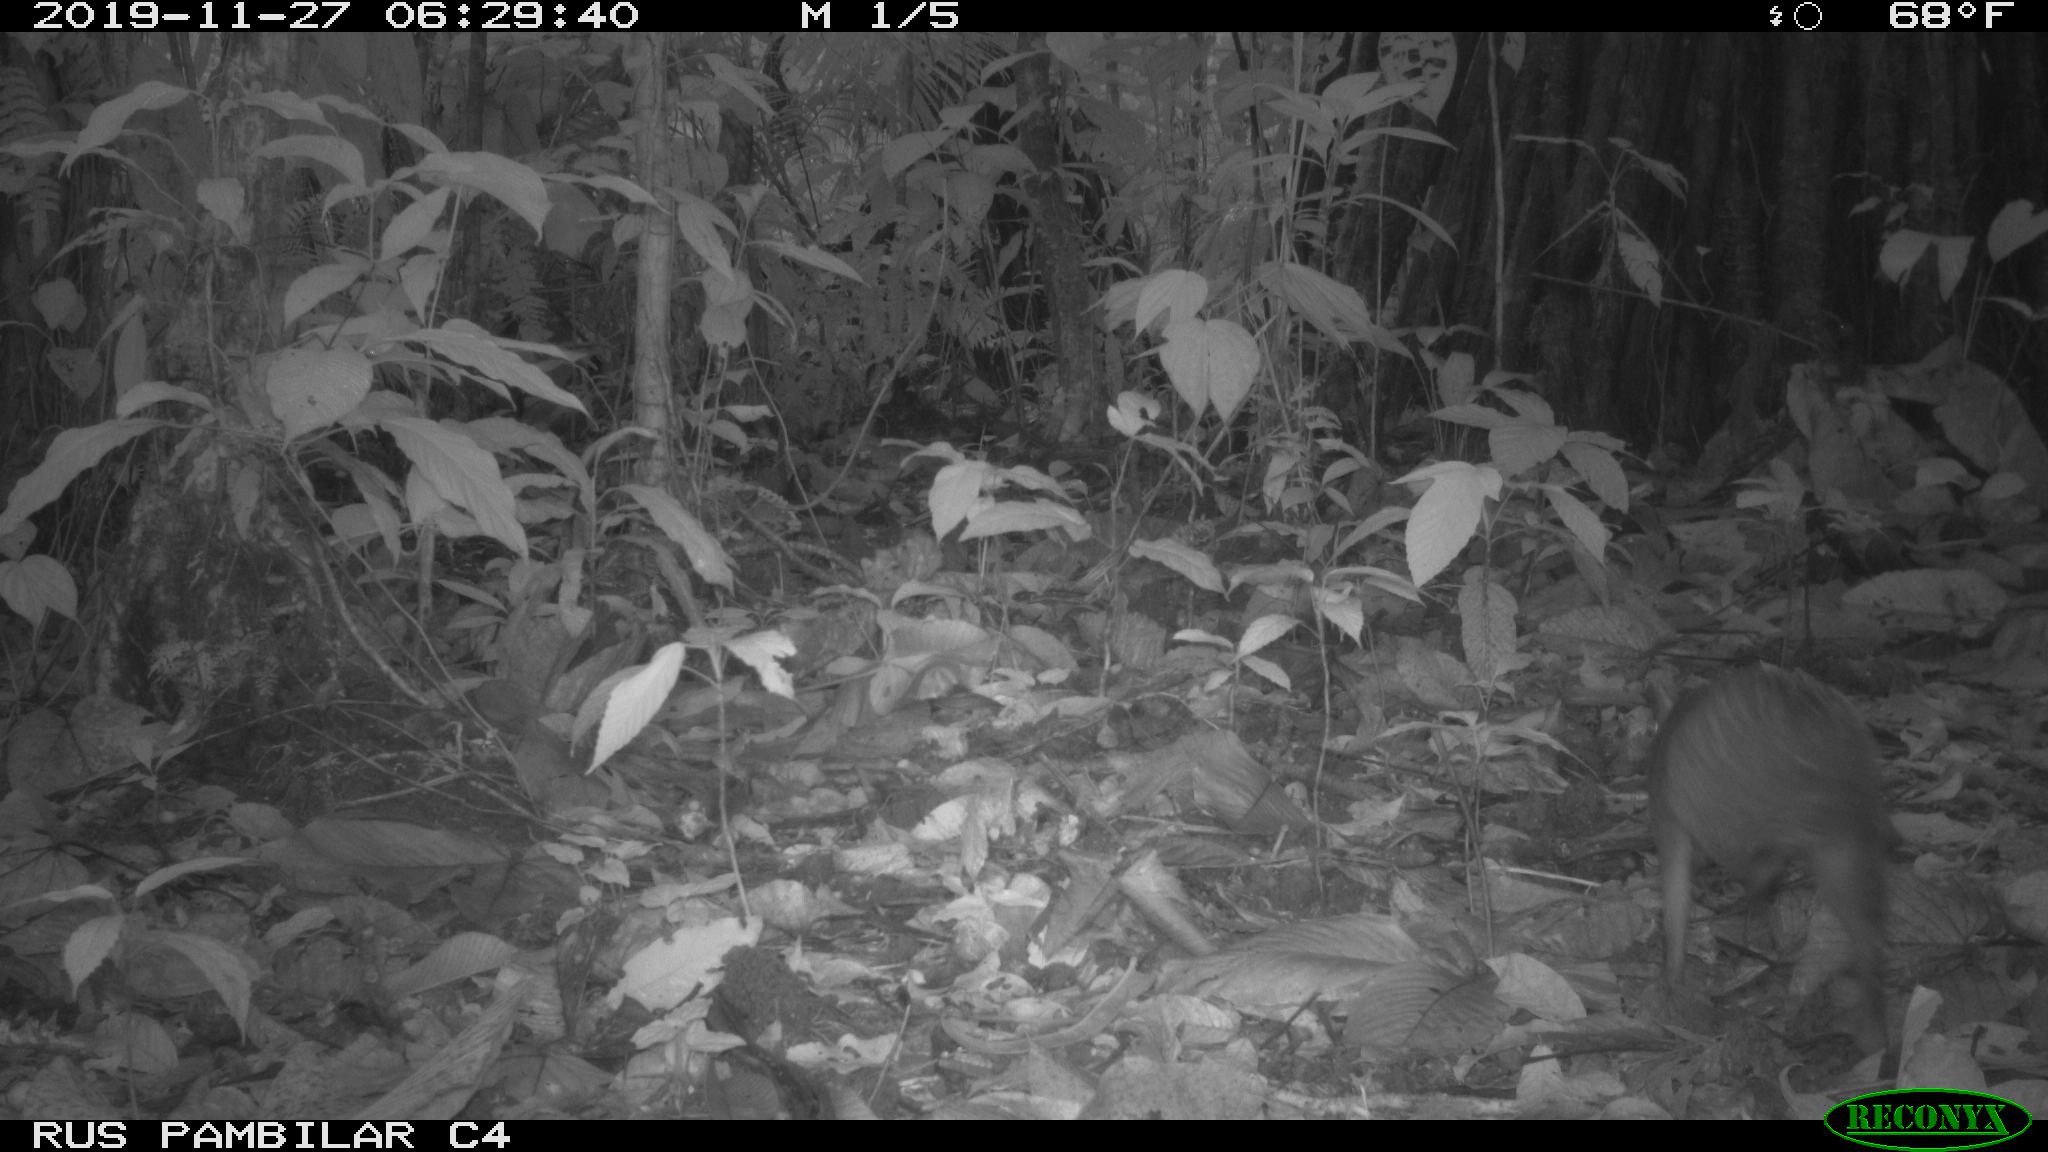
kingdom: Animalia
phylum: Chordata
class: Mammalia
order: Rodentia
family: Dasyproctidae
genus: Dasyprocta
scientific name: Dasyprocta punctata
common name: Central american agouti
